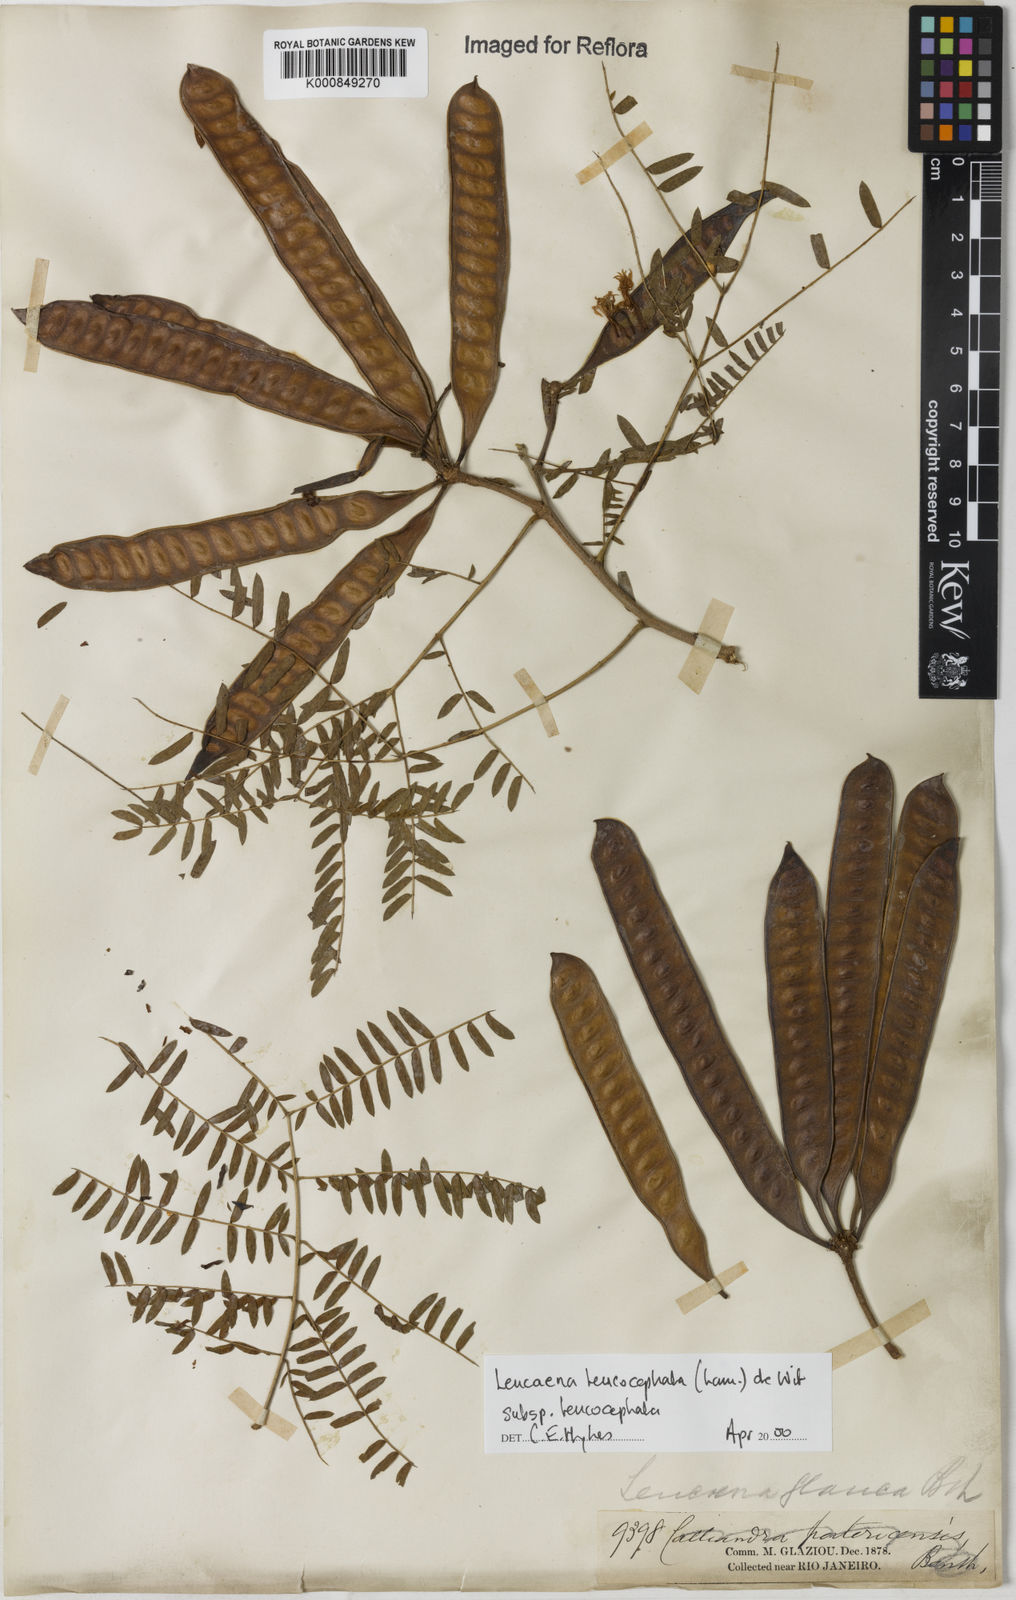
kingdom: Plantae
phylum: Tracheophyta
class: Magnoliopsida
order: Fabales
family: Fabaceae
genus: Leucaena
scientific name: Leucaena leucocephala
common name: White leadtree
